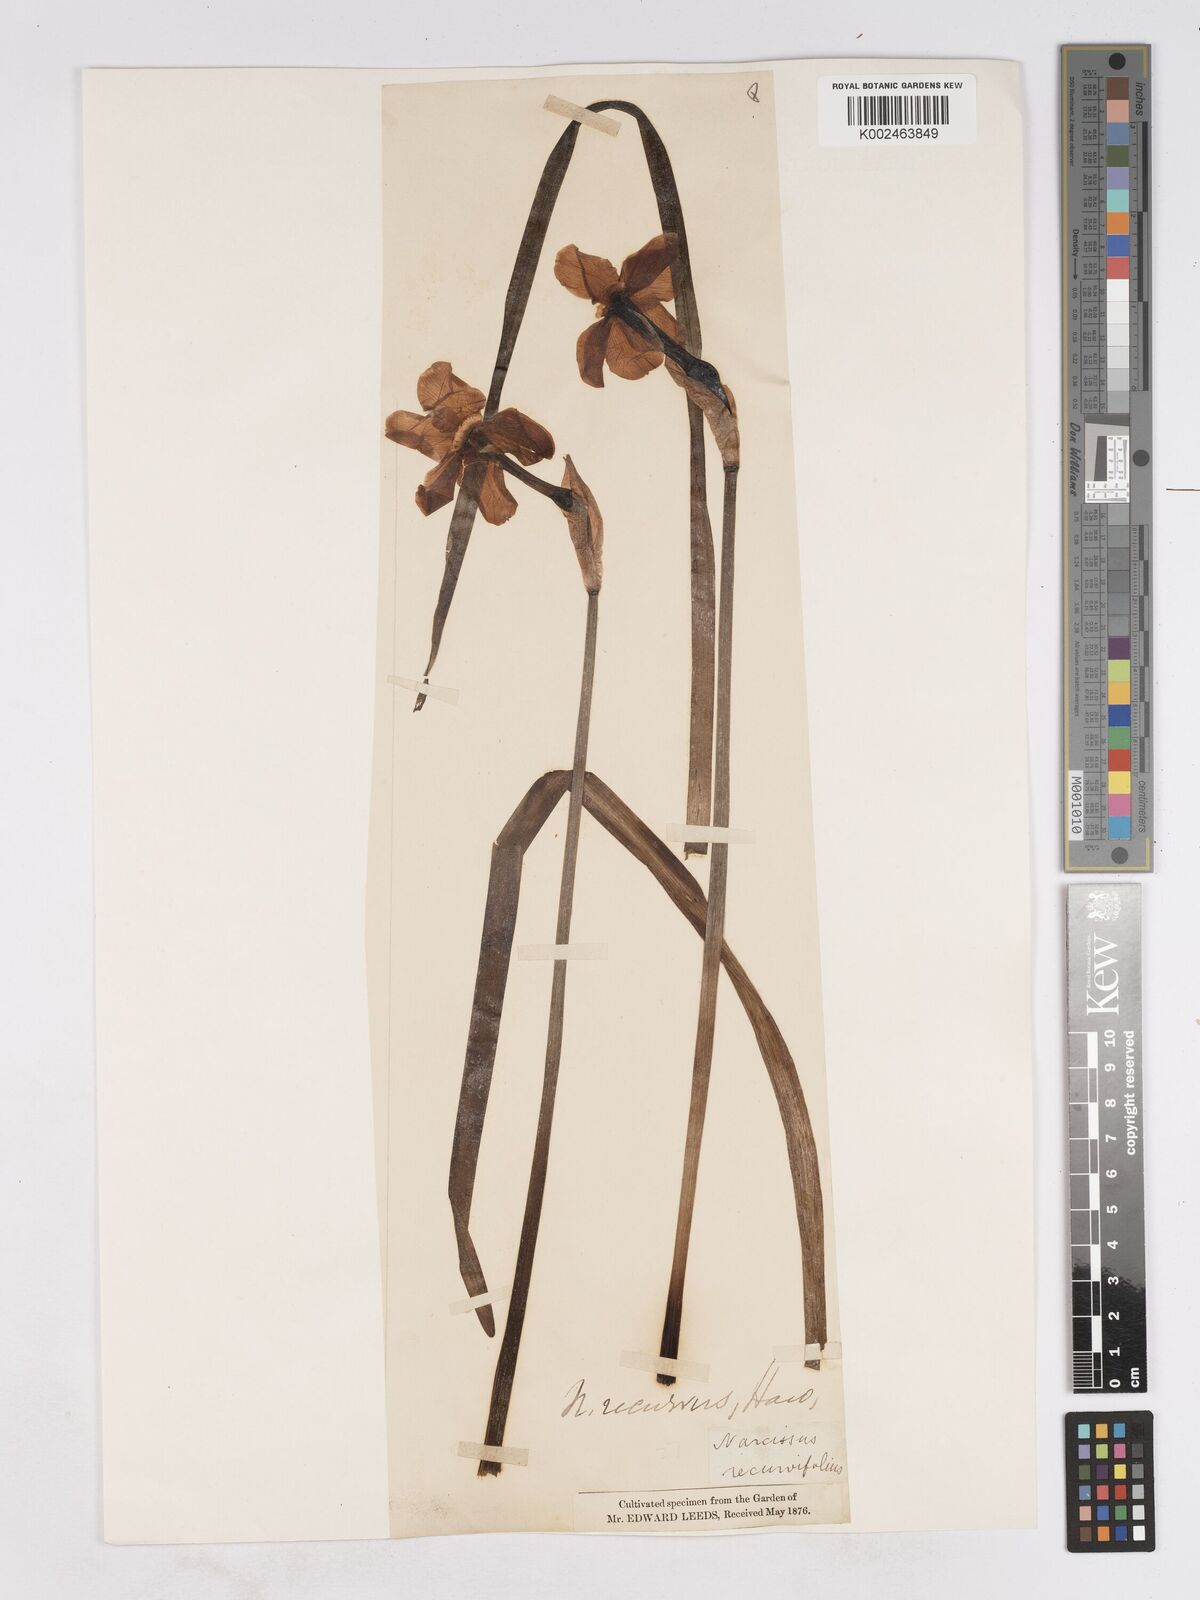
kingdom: Plantae
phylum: Tracheophyta
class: Liliopsida
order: Asparagales
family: Amaryllidaceae
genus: Narcissus
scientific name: Narcissus poeticus
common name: Pheasant's-eye daffodil
